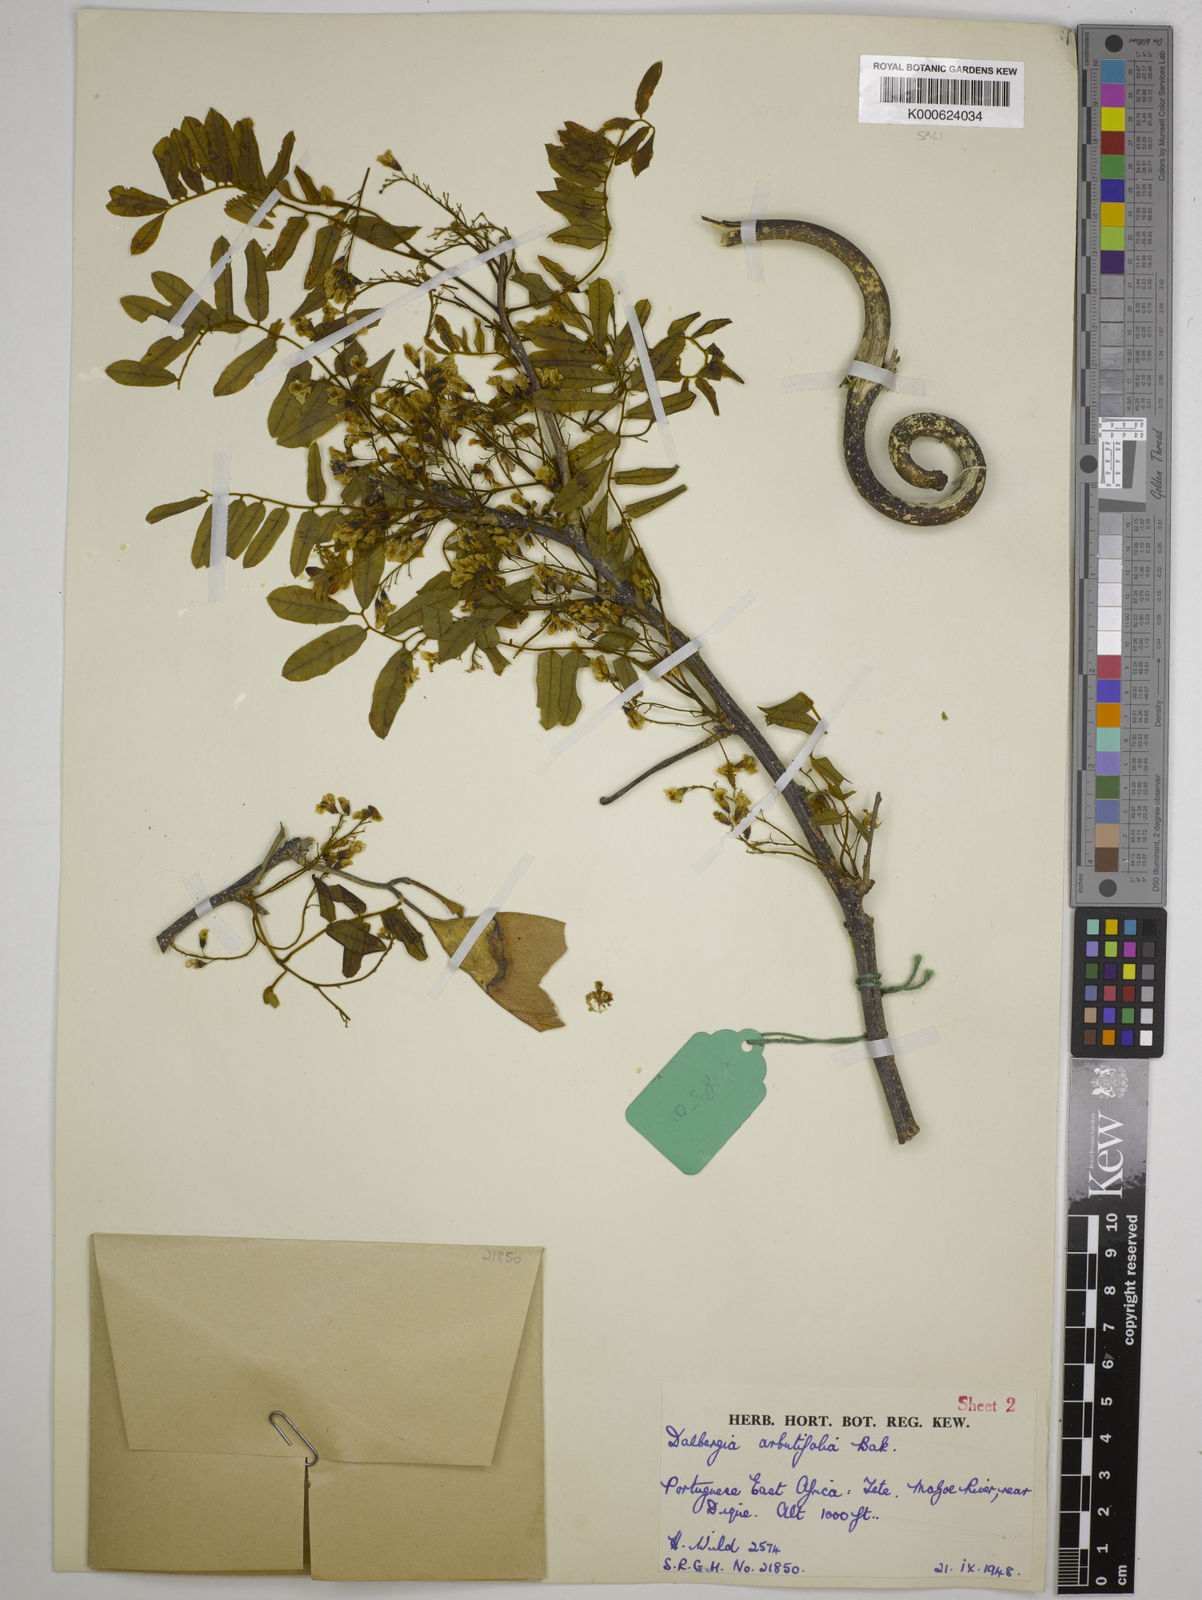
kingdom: Plantae
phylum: Tracheophyta
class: Magnoliopsida
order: Fabales
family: Fabaceae
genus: Dalbergia
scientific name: Dalbergia arbutifolia
